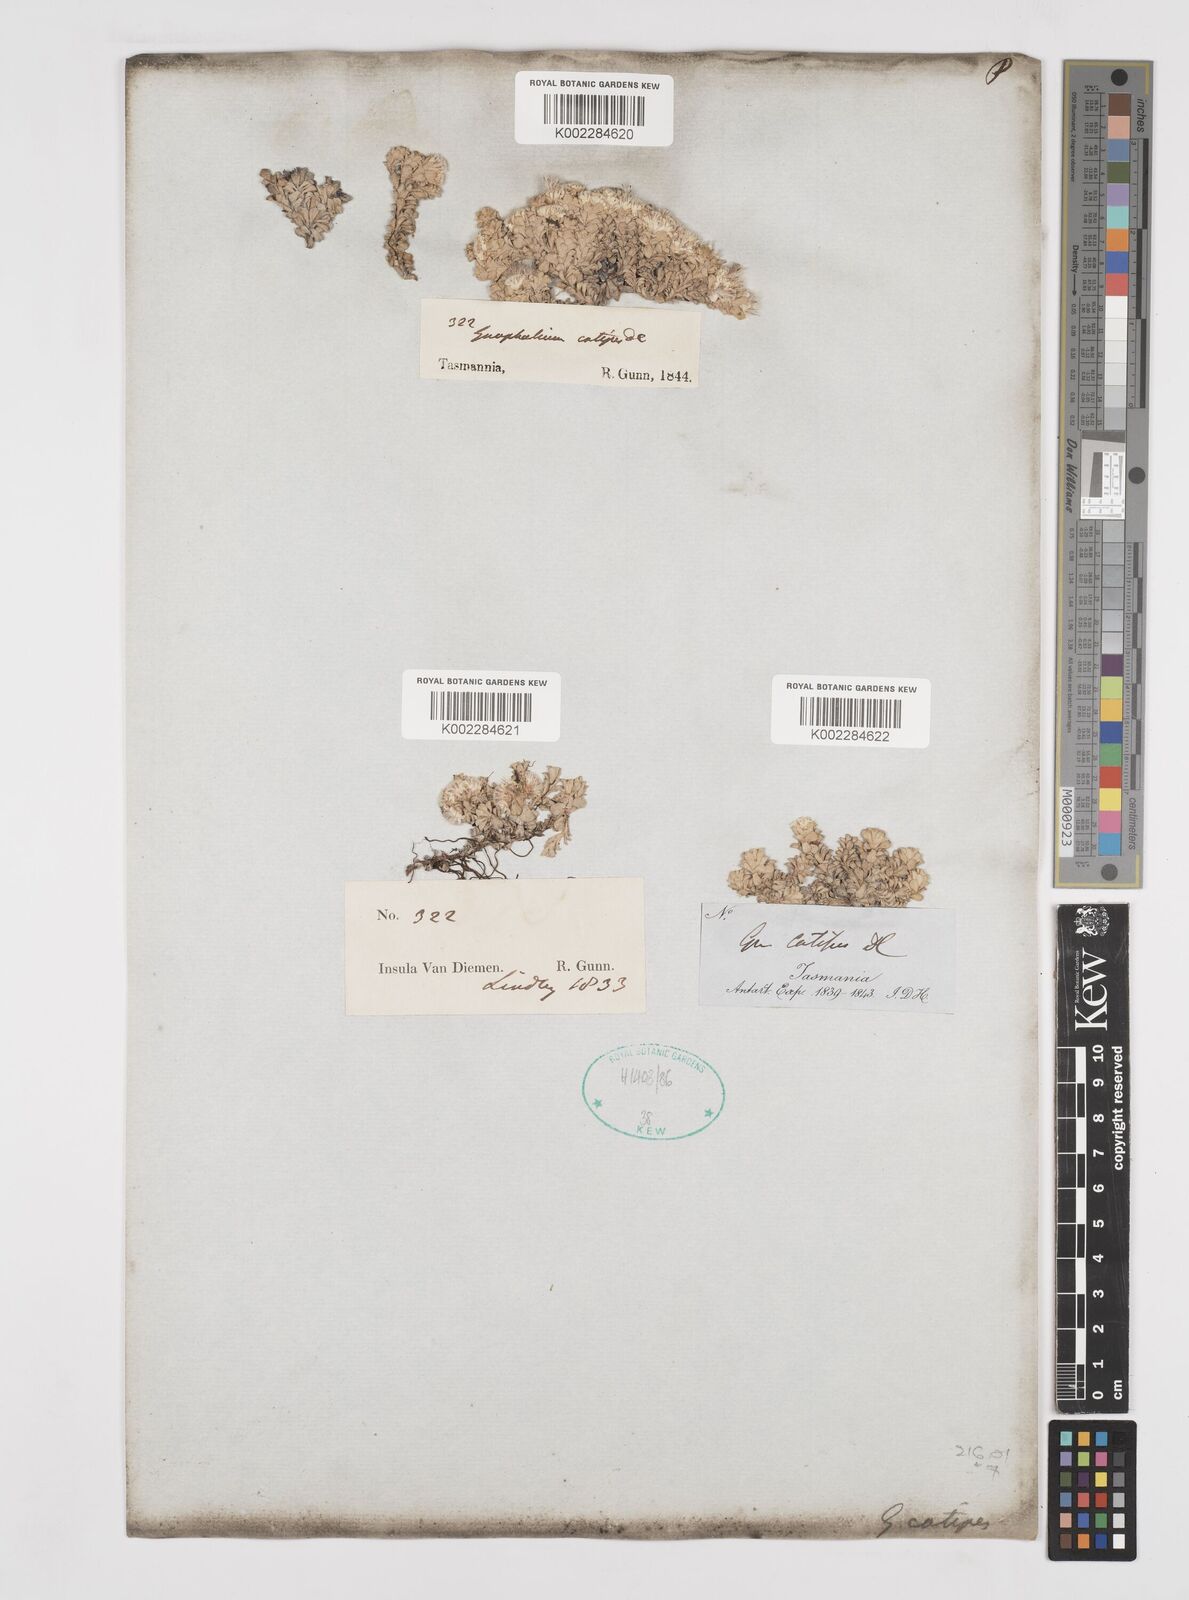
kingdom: Plantae
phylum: Tracheophyta
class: Magnoliopsida
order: Asterales
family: Asteraceae
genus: Ewartia
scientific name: Ewartia catipes
